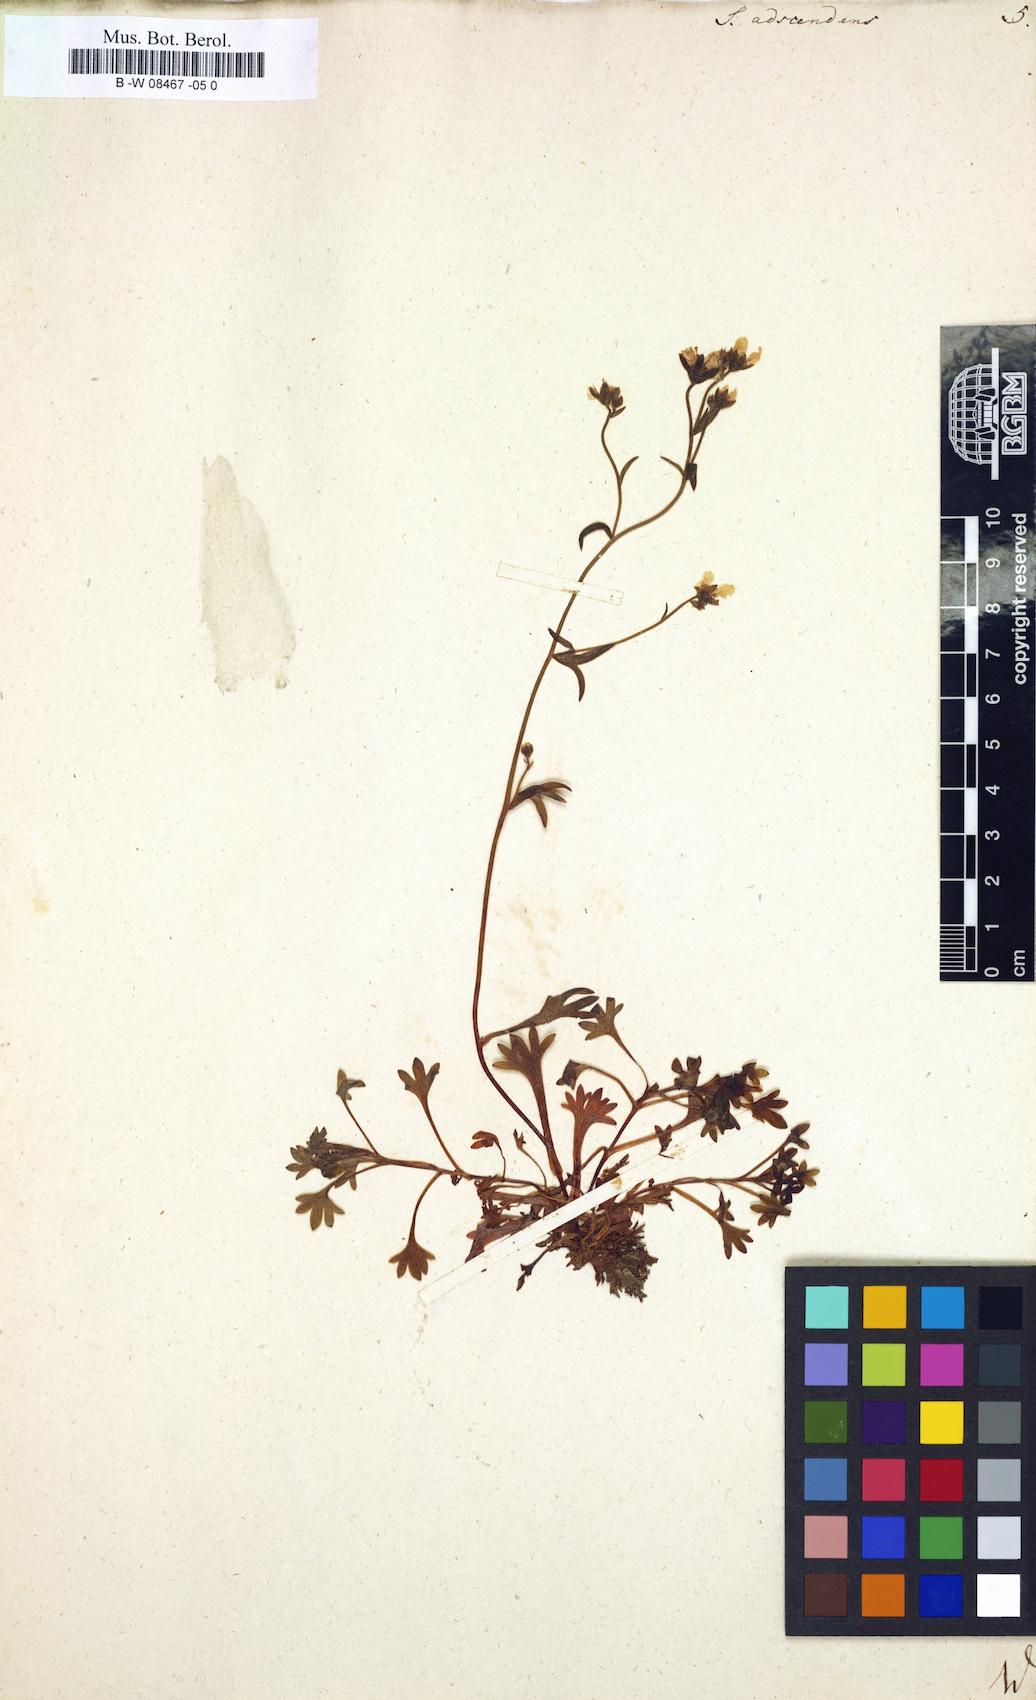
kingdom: Plantae
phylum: Tracheophyta
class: Magnoliopsida
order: Saxifragales
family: Saxifragaceae
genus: Saxifraga
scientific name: Saxifraga adscendens
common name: Ascending saxifrage
